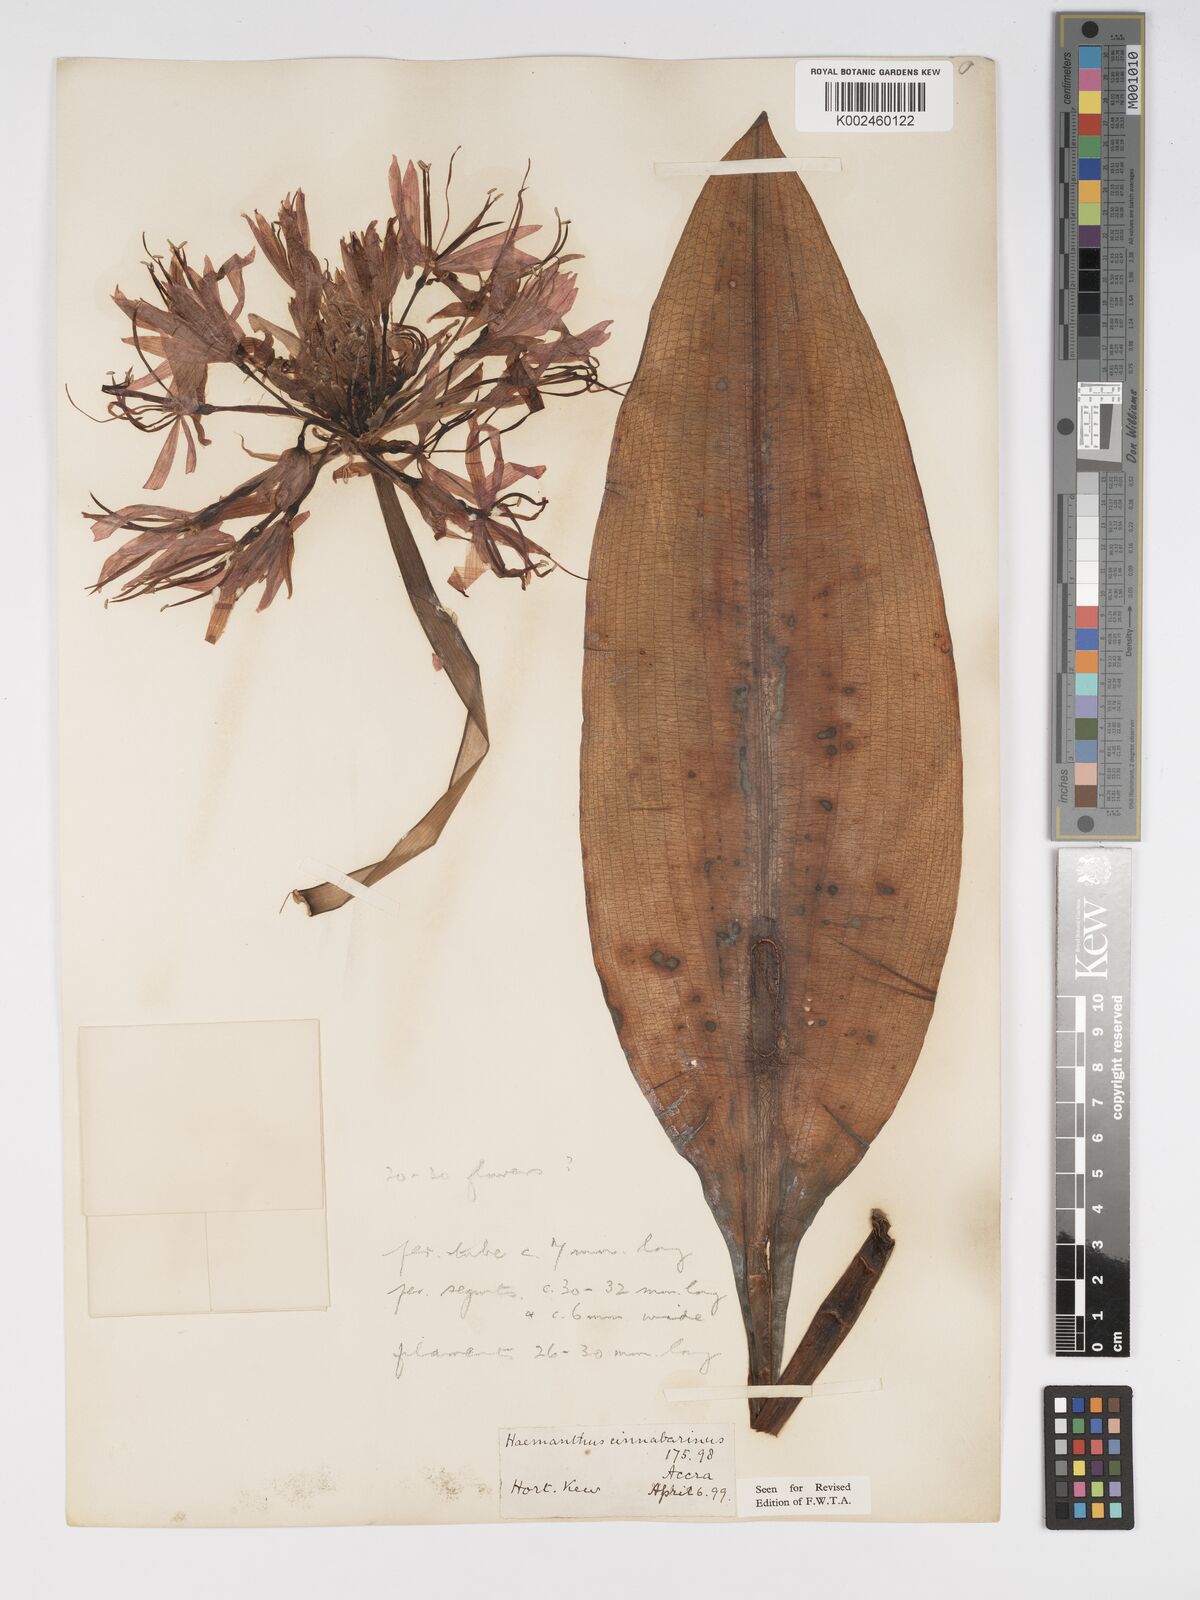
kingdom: Plantae
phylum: Tracheophyta
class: Liliopsida
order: Asparagales
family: Amaryllidaceae
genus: Scadoxus
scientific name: Scadoxus cinnabarinus
